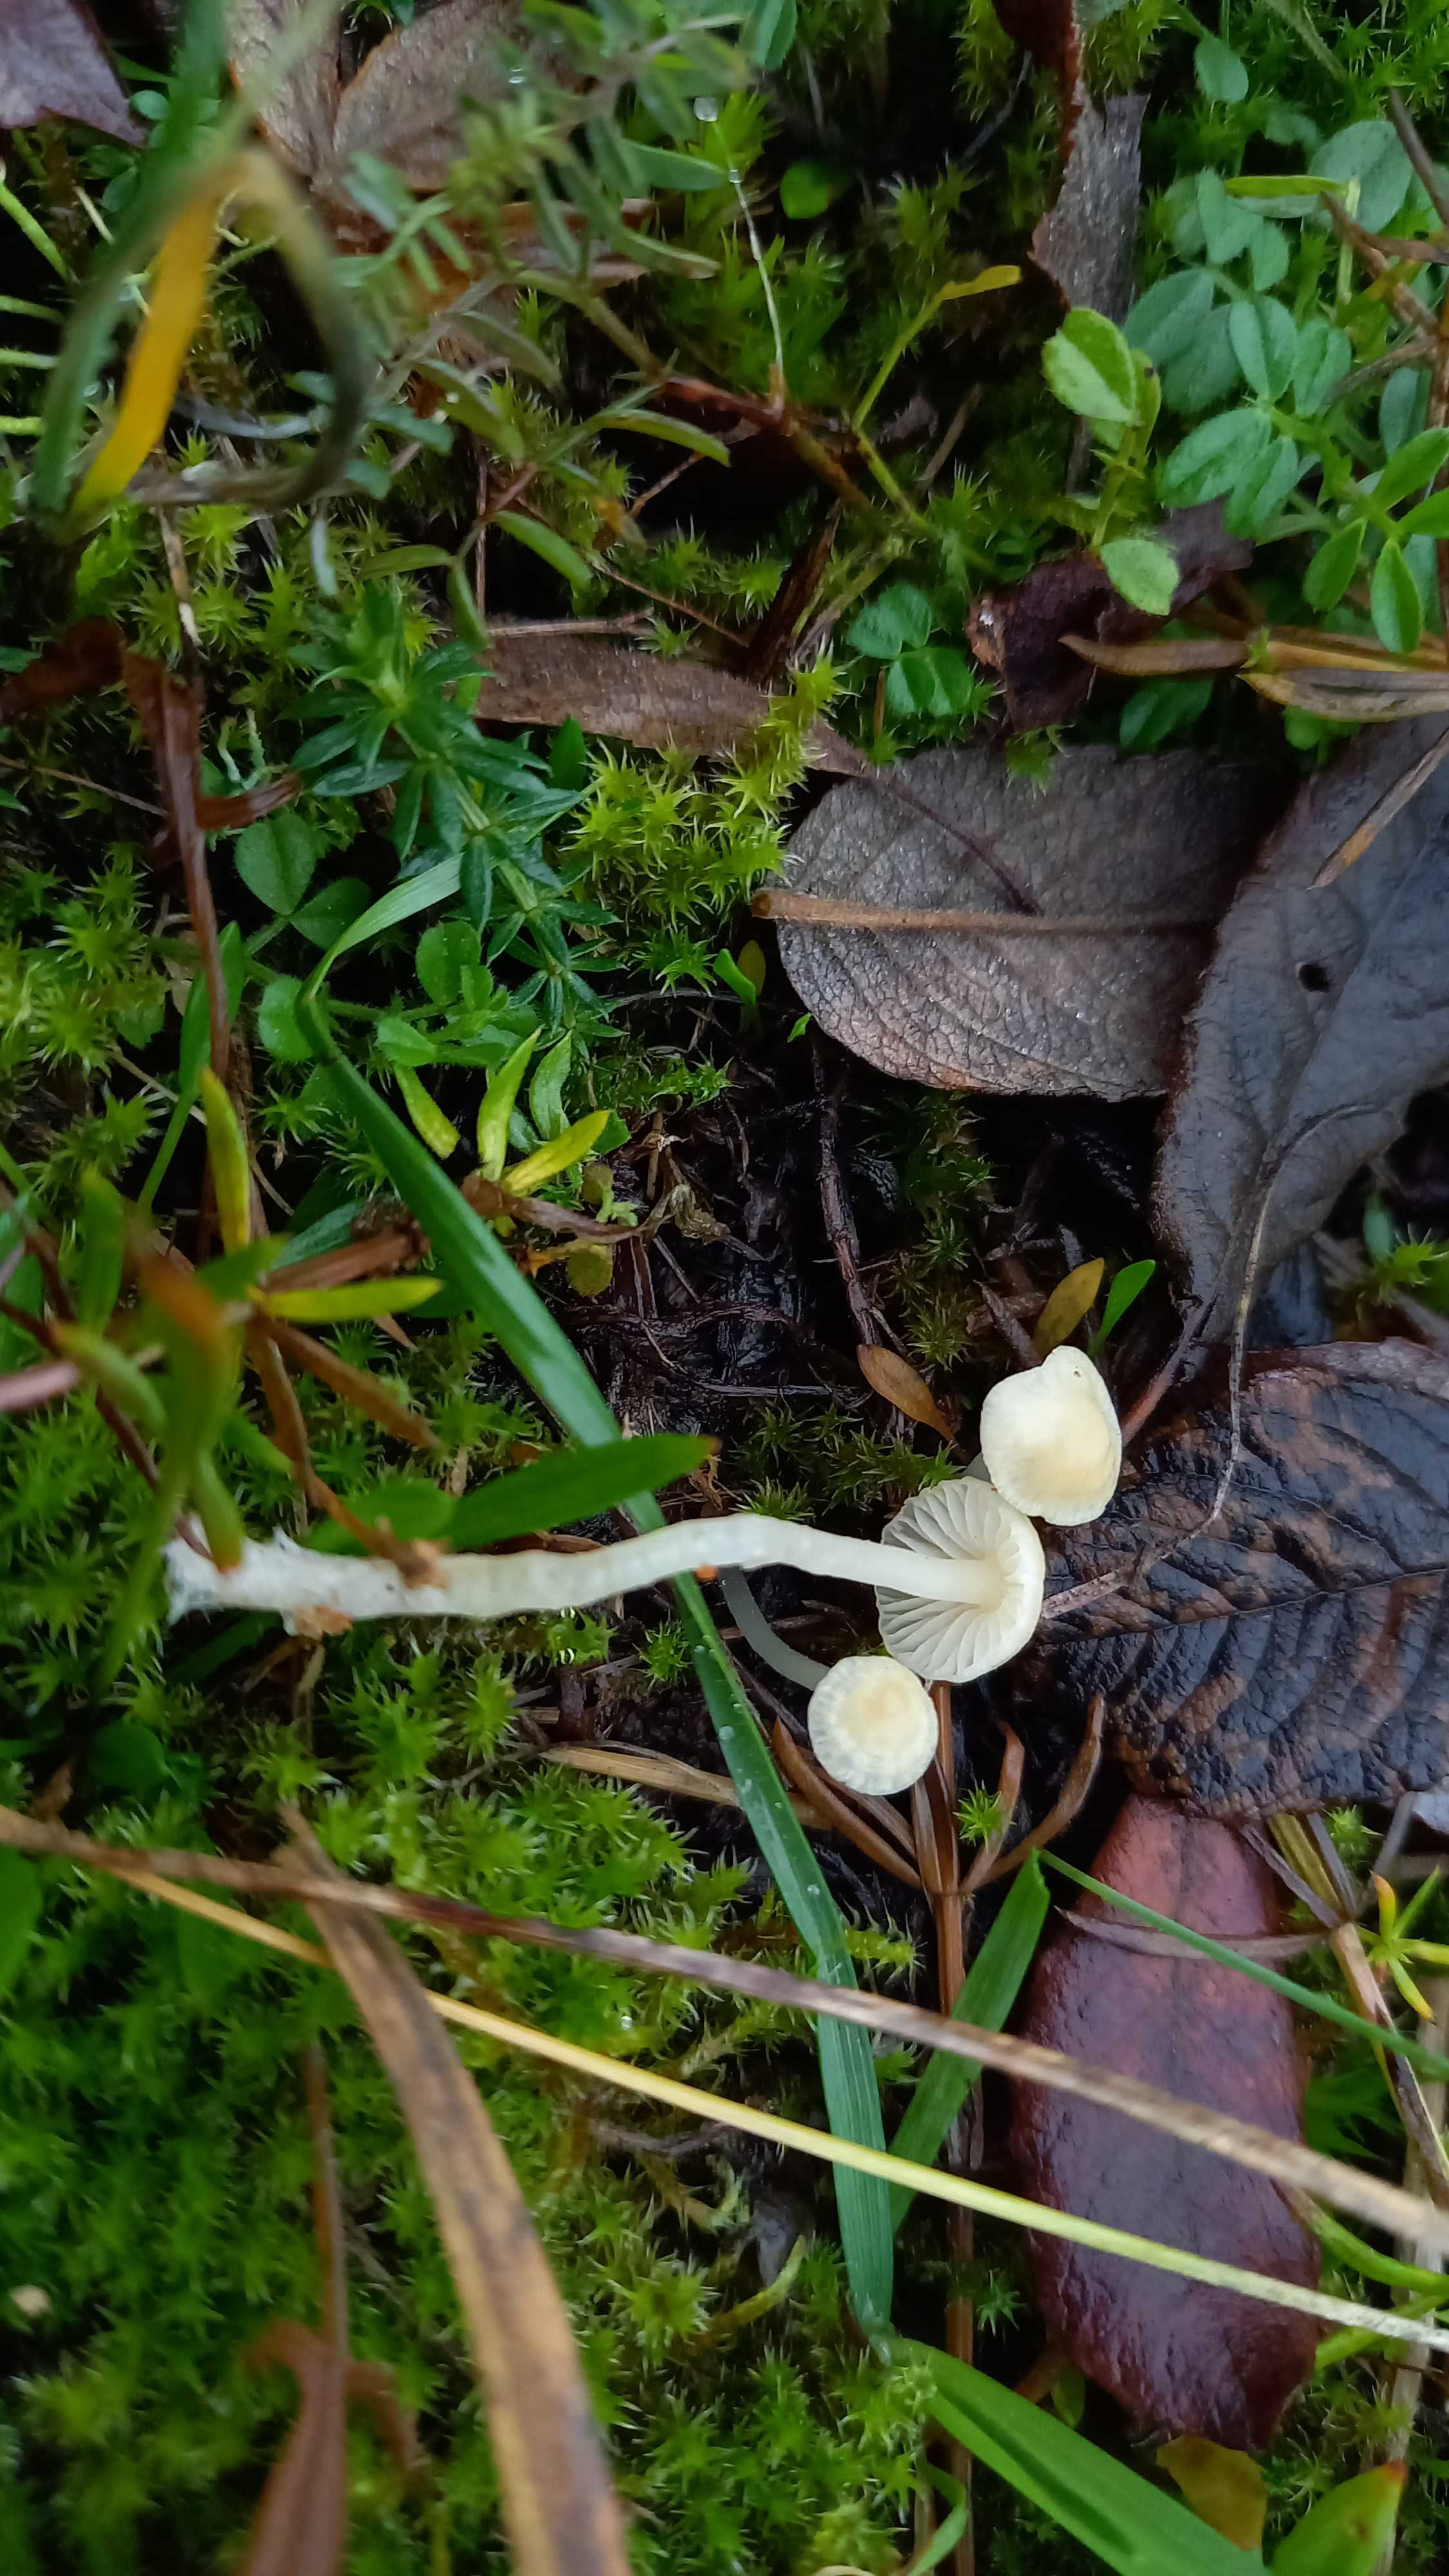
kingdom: Fungi
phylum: Basidiomycota
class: Agaricomycetes
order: Agaricales
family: Mycenaceae
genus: Atheniella
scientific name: Atheniella flavoalba
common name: gulhvid huesvamp
